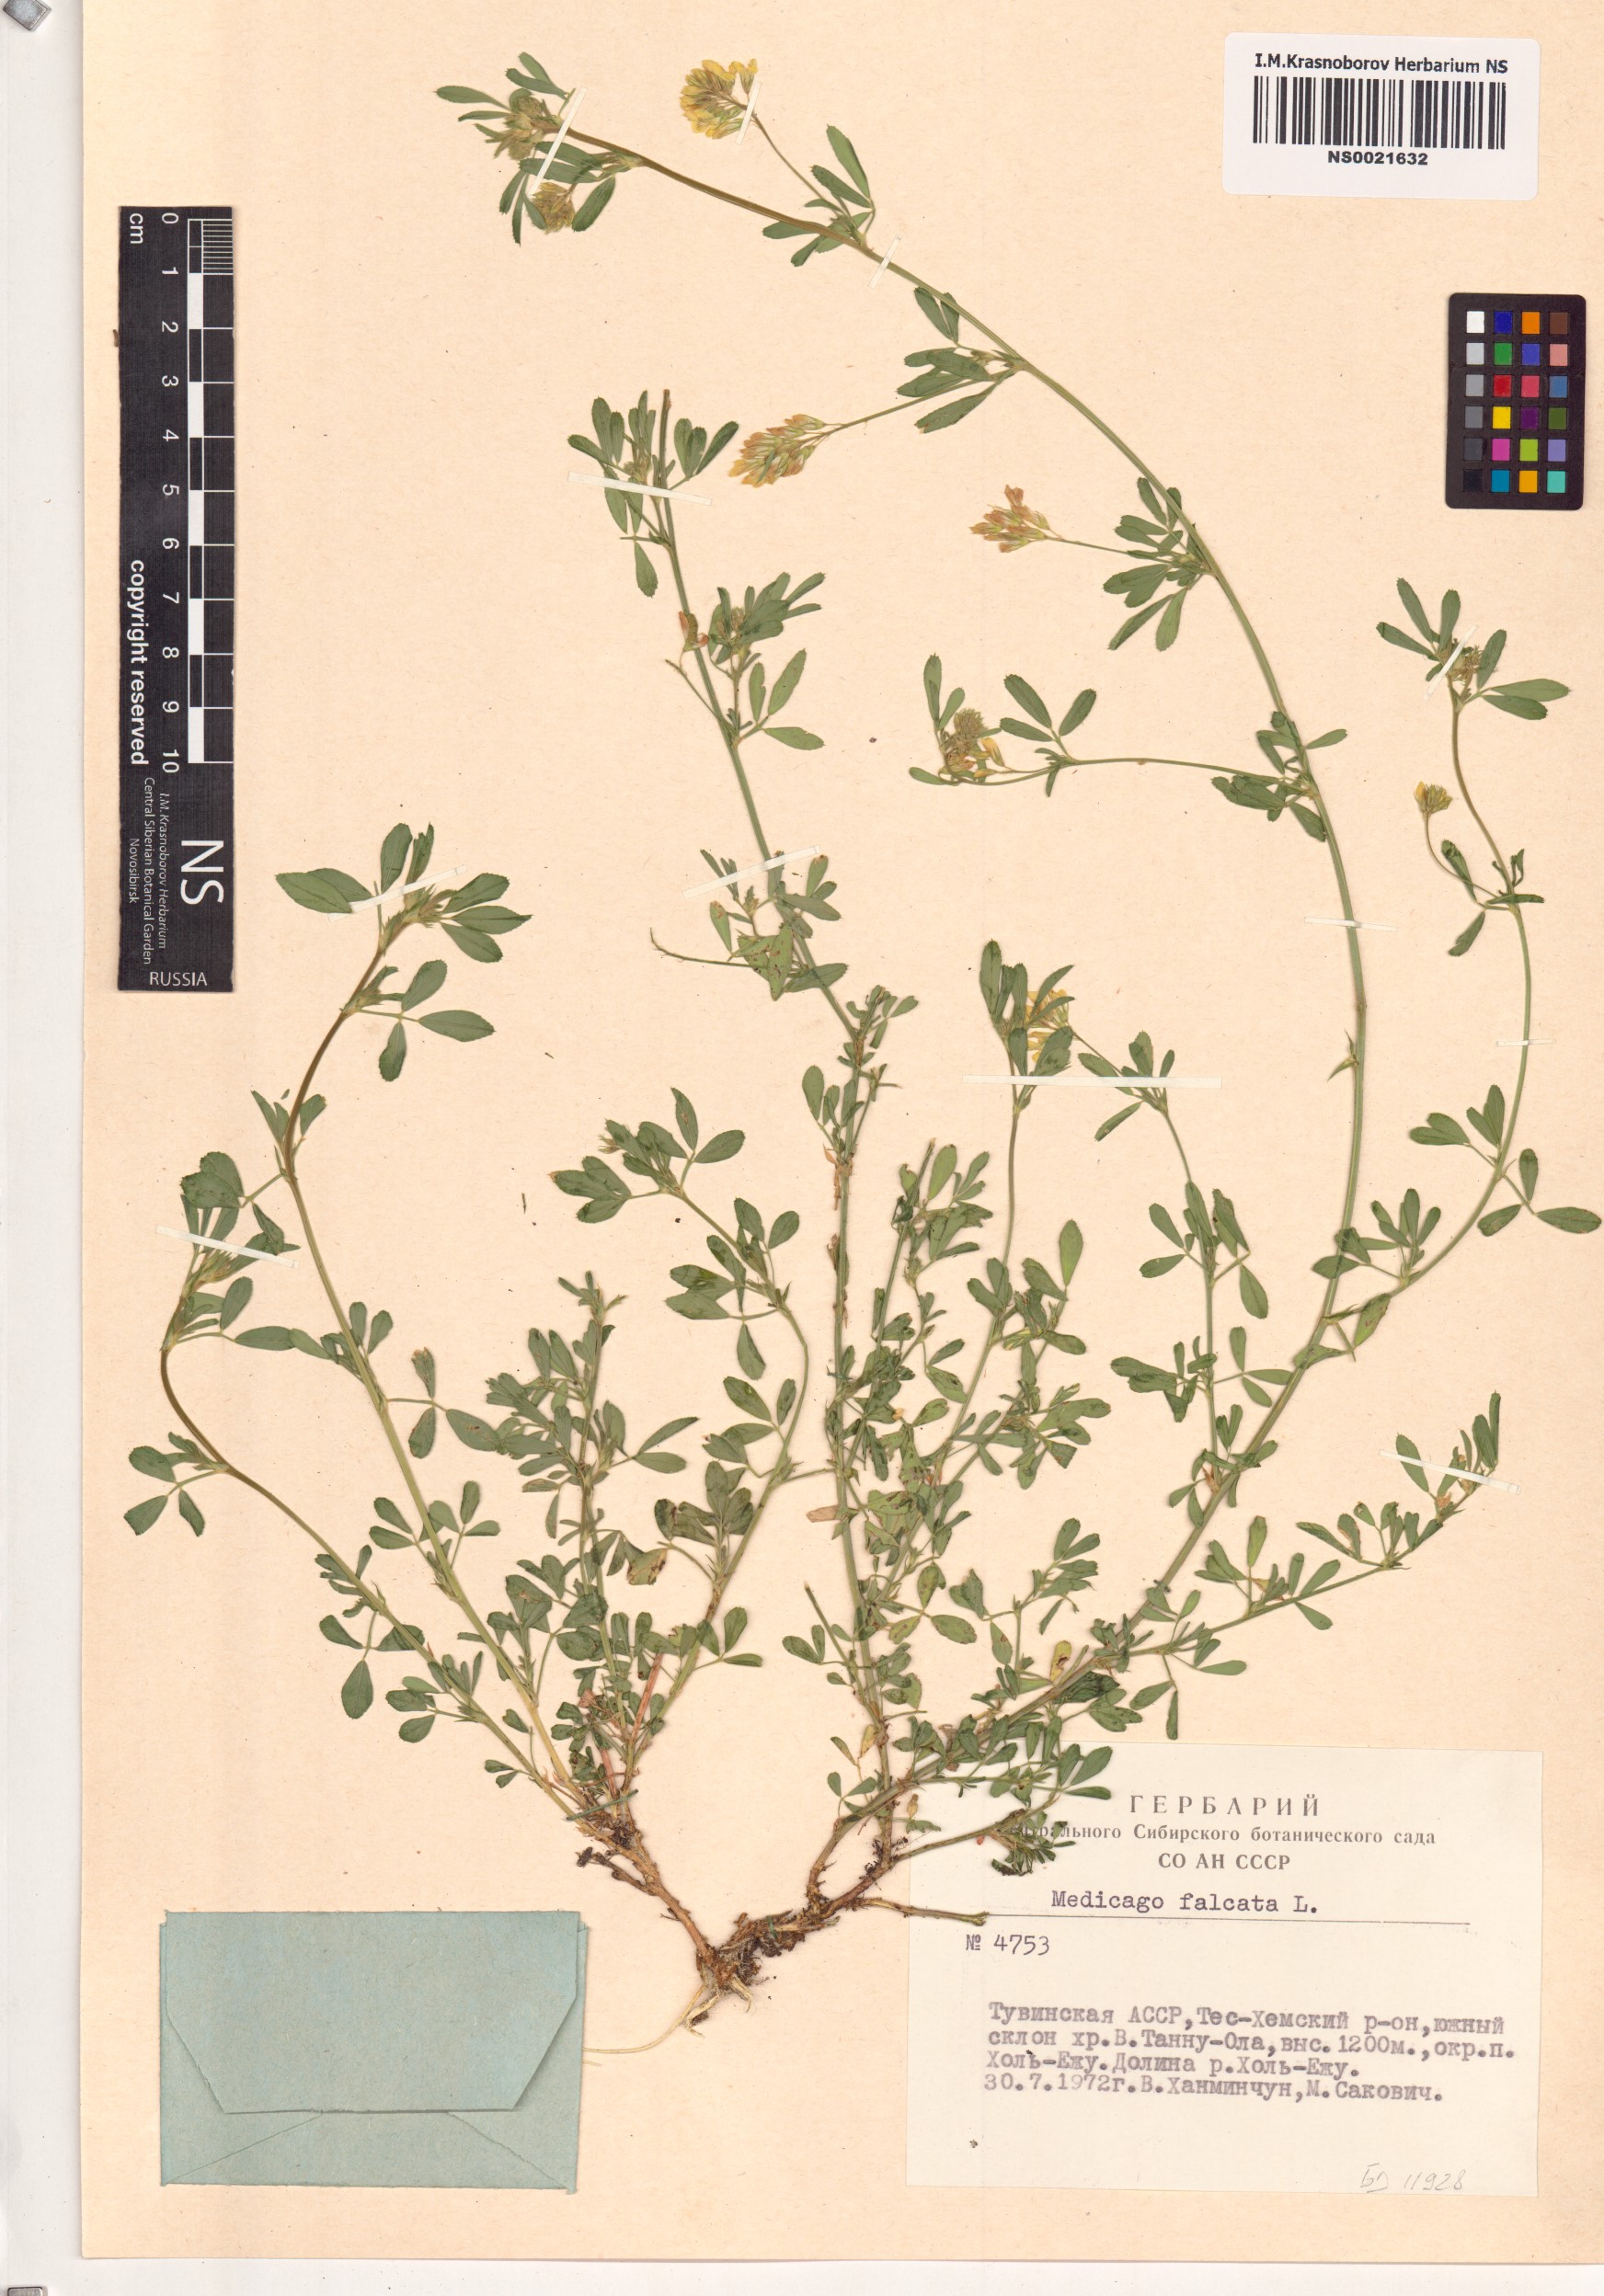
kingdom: Plantae
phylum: Tracheophyta
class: Magnoliopsida
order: Fabales
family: Fabaceae
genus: Medicago
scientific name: Medicago falcata
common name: Sickle medick
